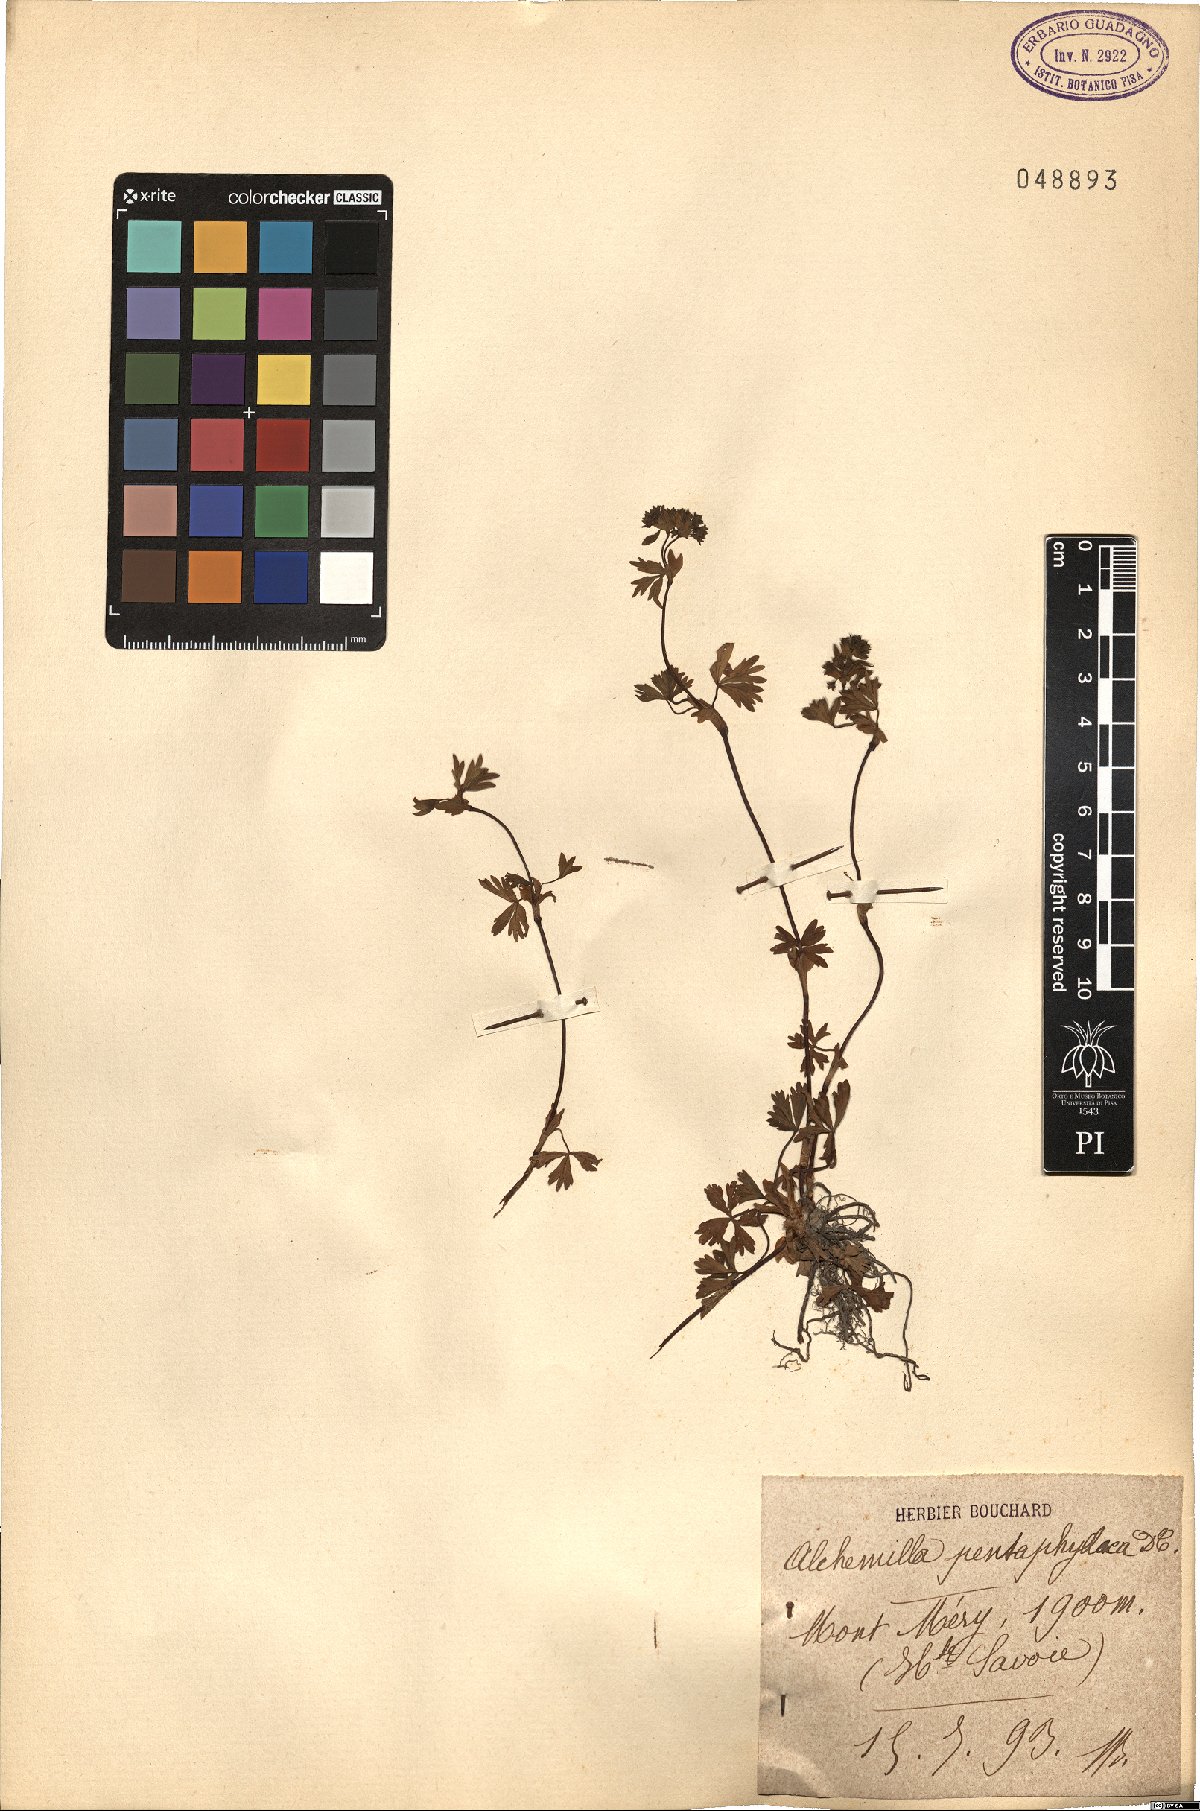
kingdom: Plantae
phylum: Tracheophyta
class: Magnoliopsida
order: Rosales
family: Rosaceae
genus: Alchemilla
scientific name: Alchemilla pentaphyllea
